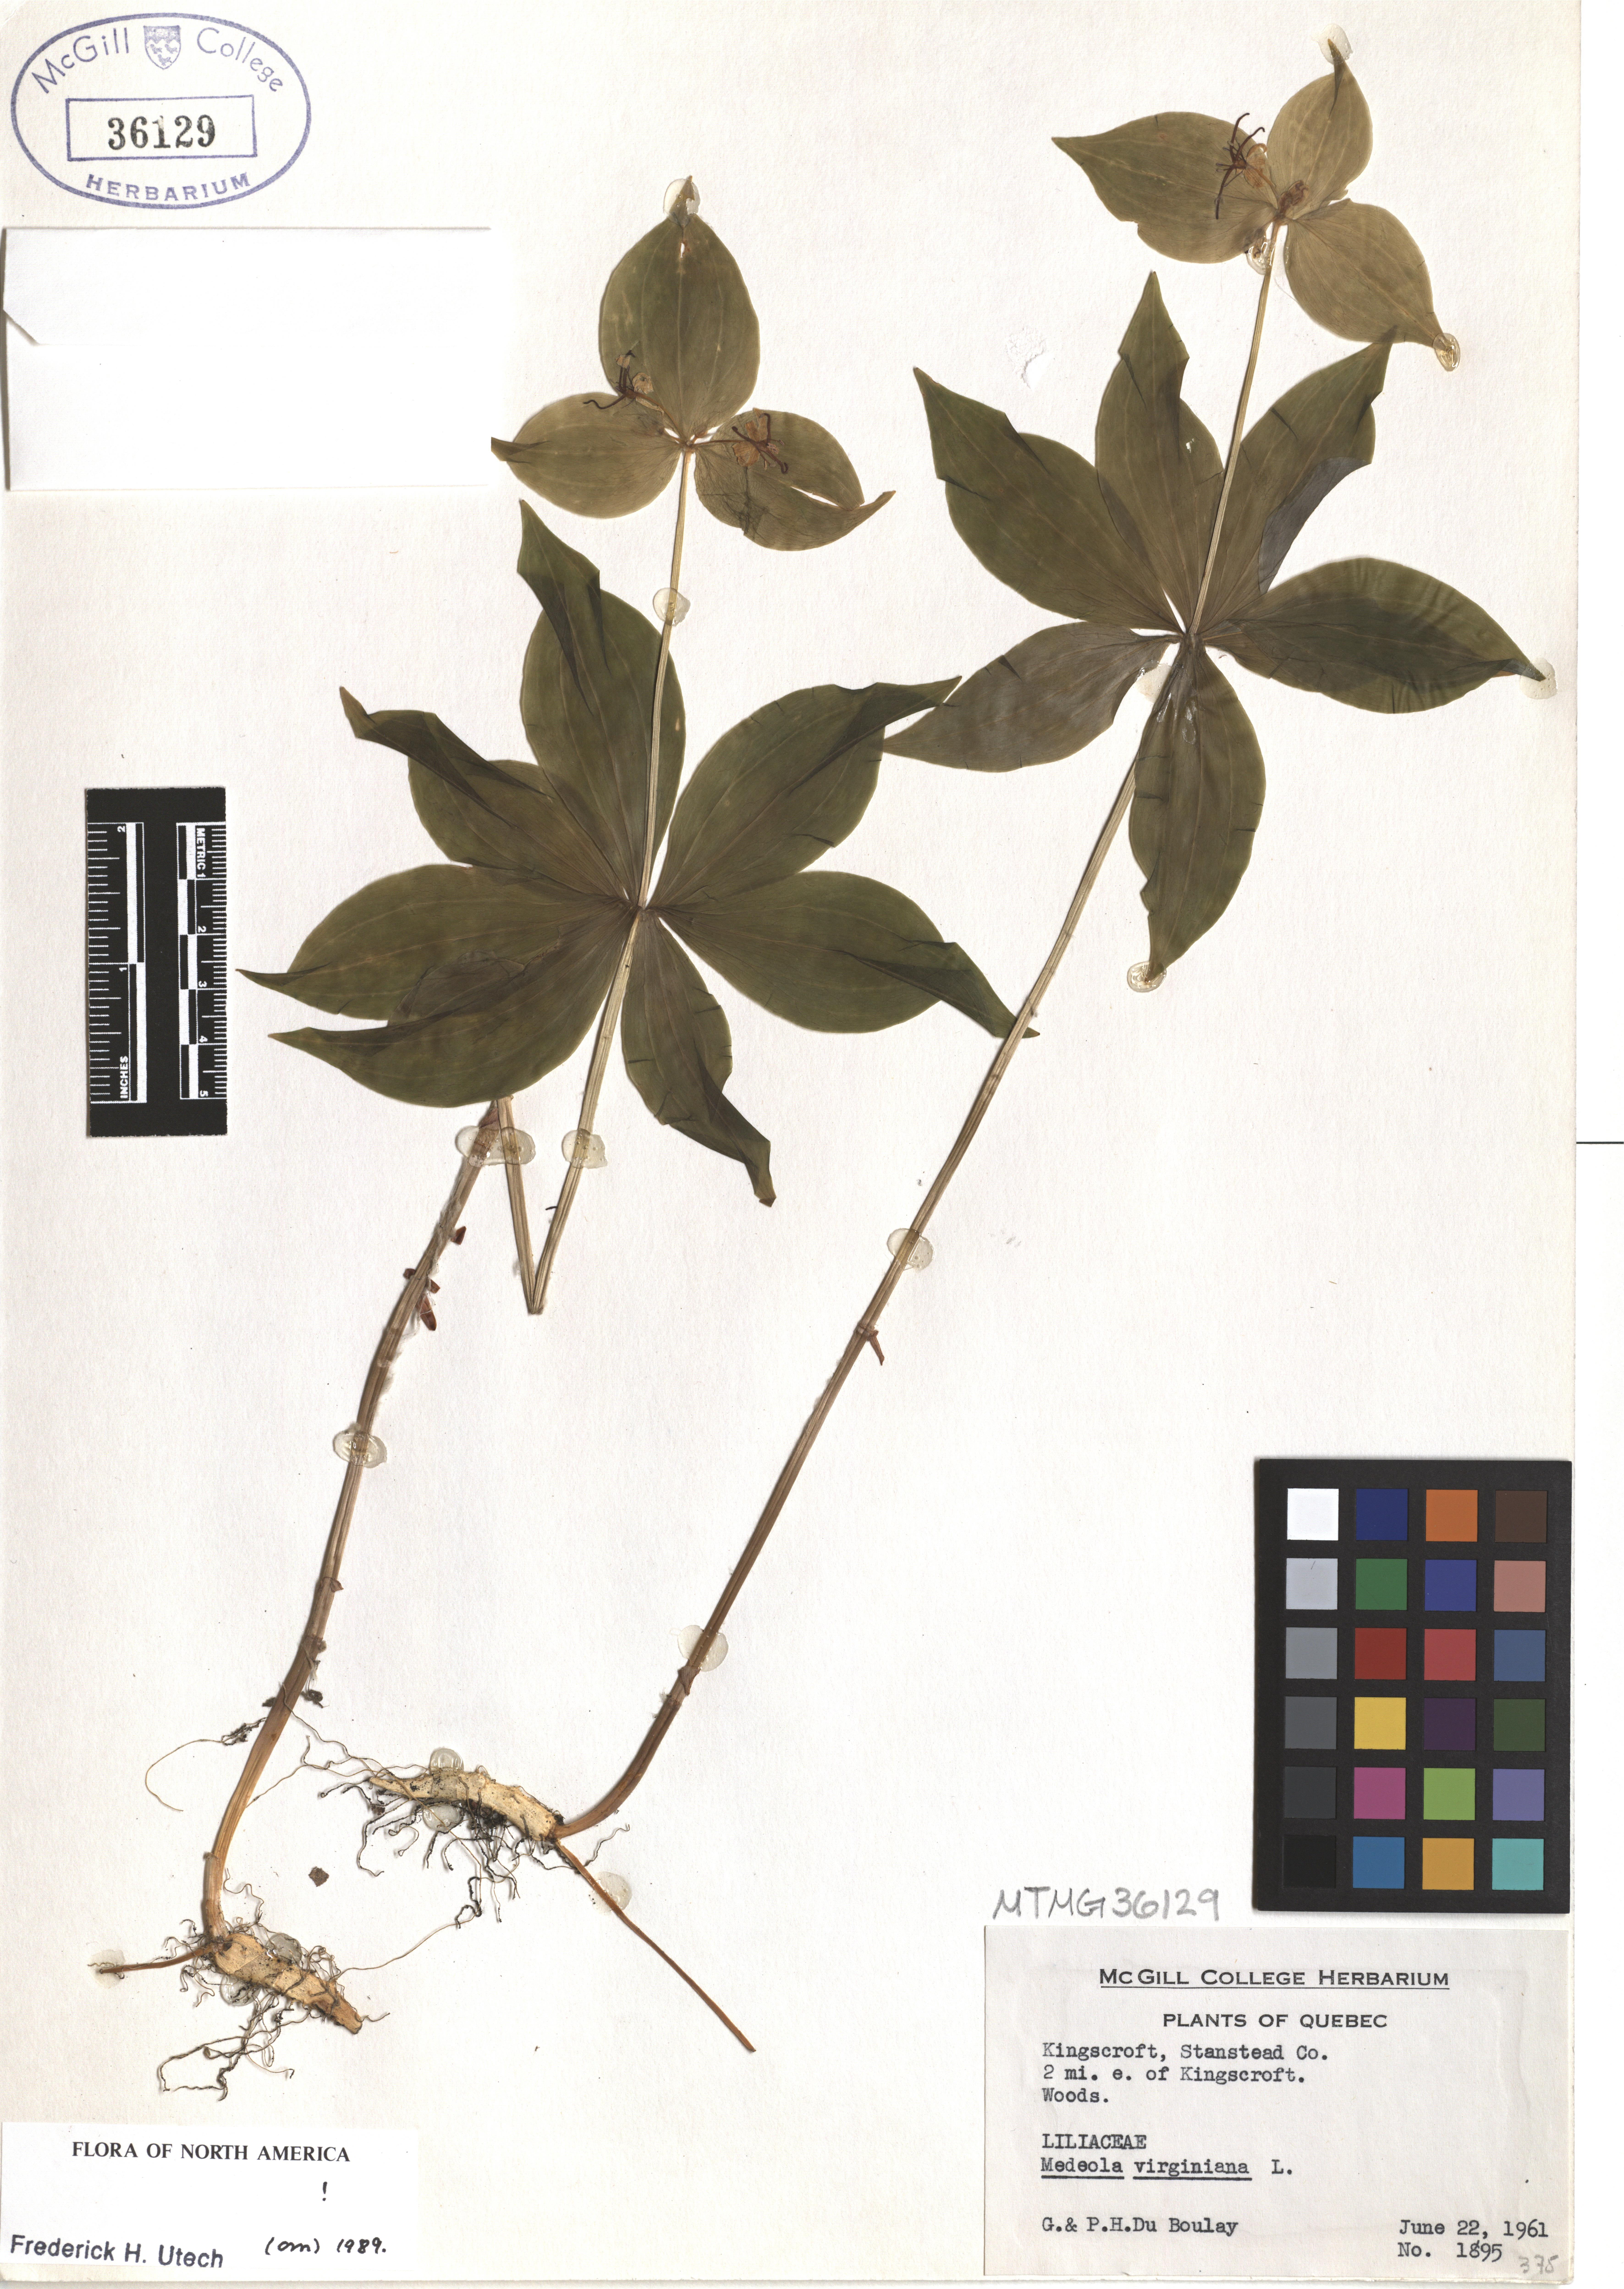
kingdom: Plantae
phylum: Tracheophyta
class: Liliopsida
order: Liliales
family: Liliaceae
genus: Medeola
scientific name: Medeola virginiana
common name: Indian cucumber-root
